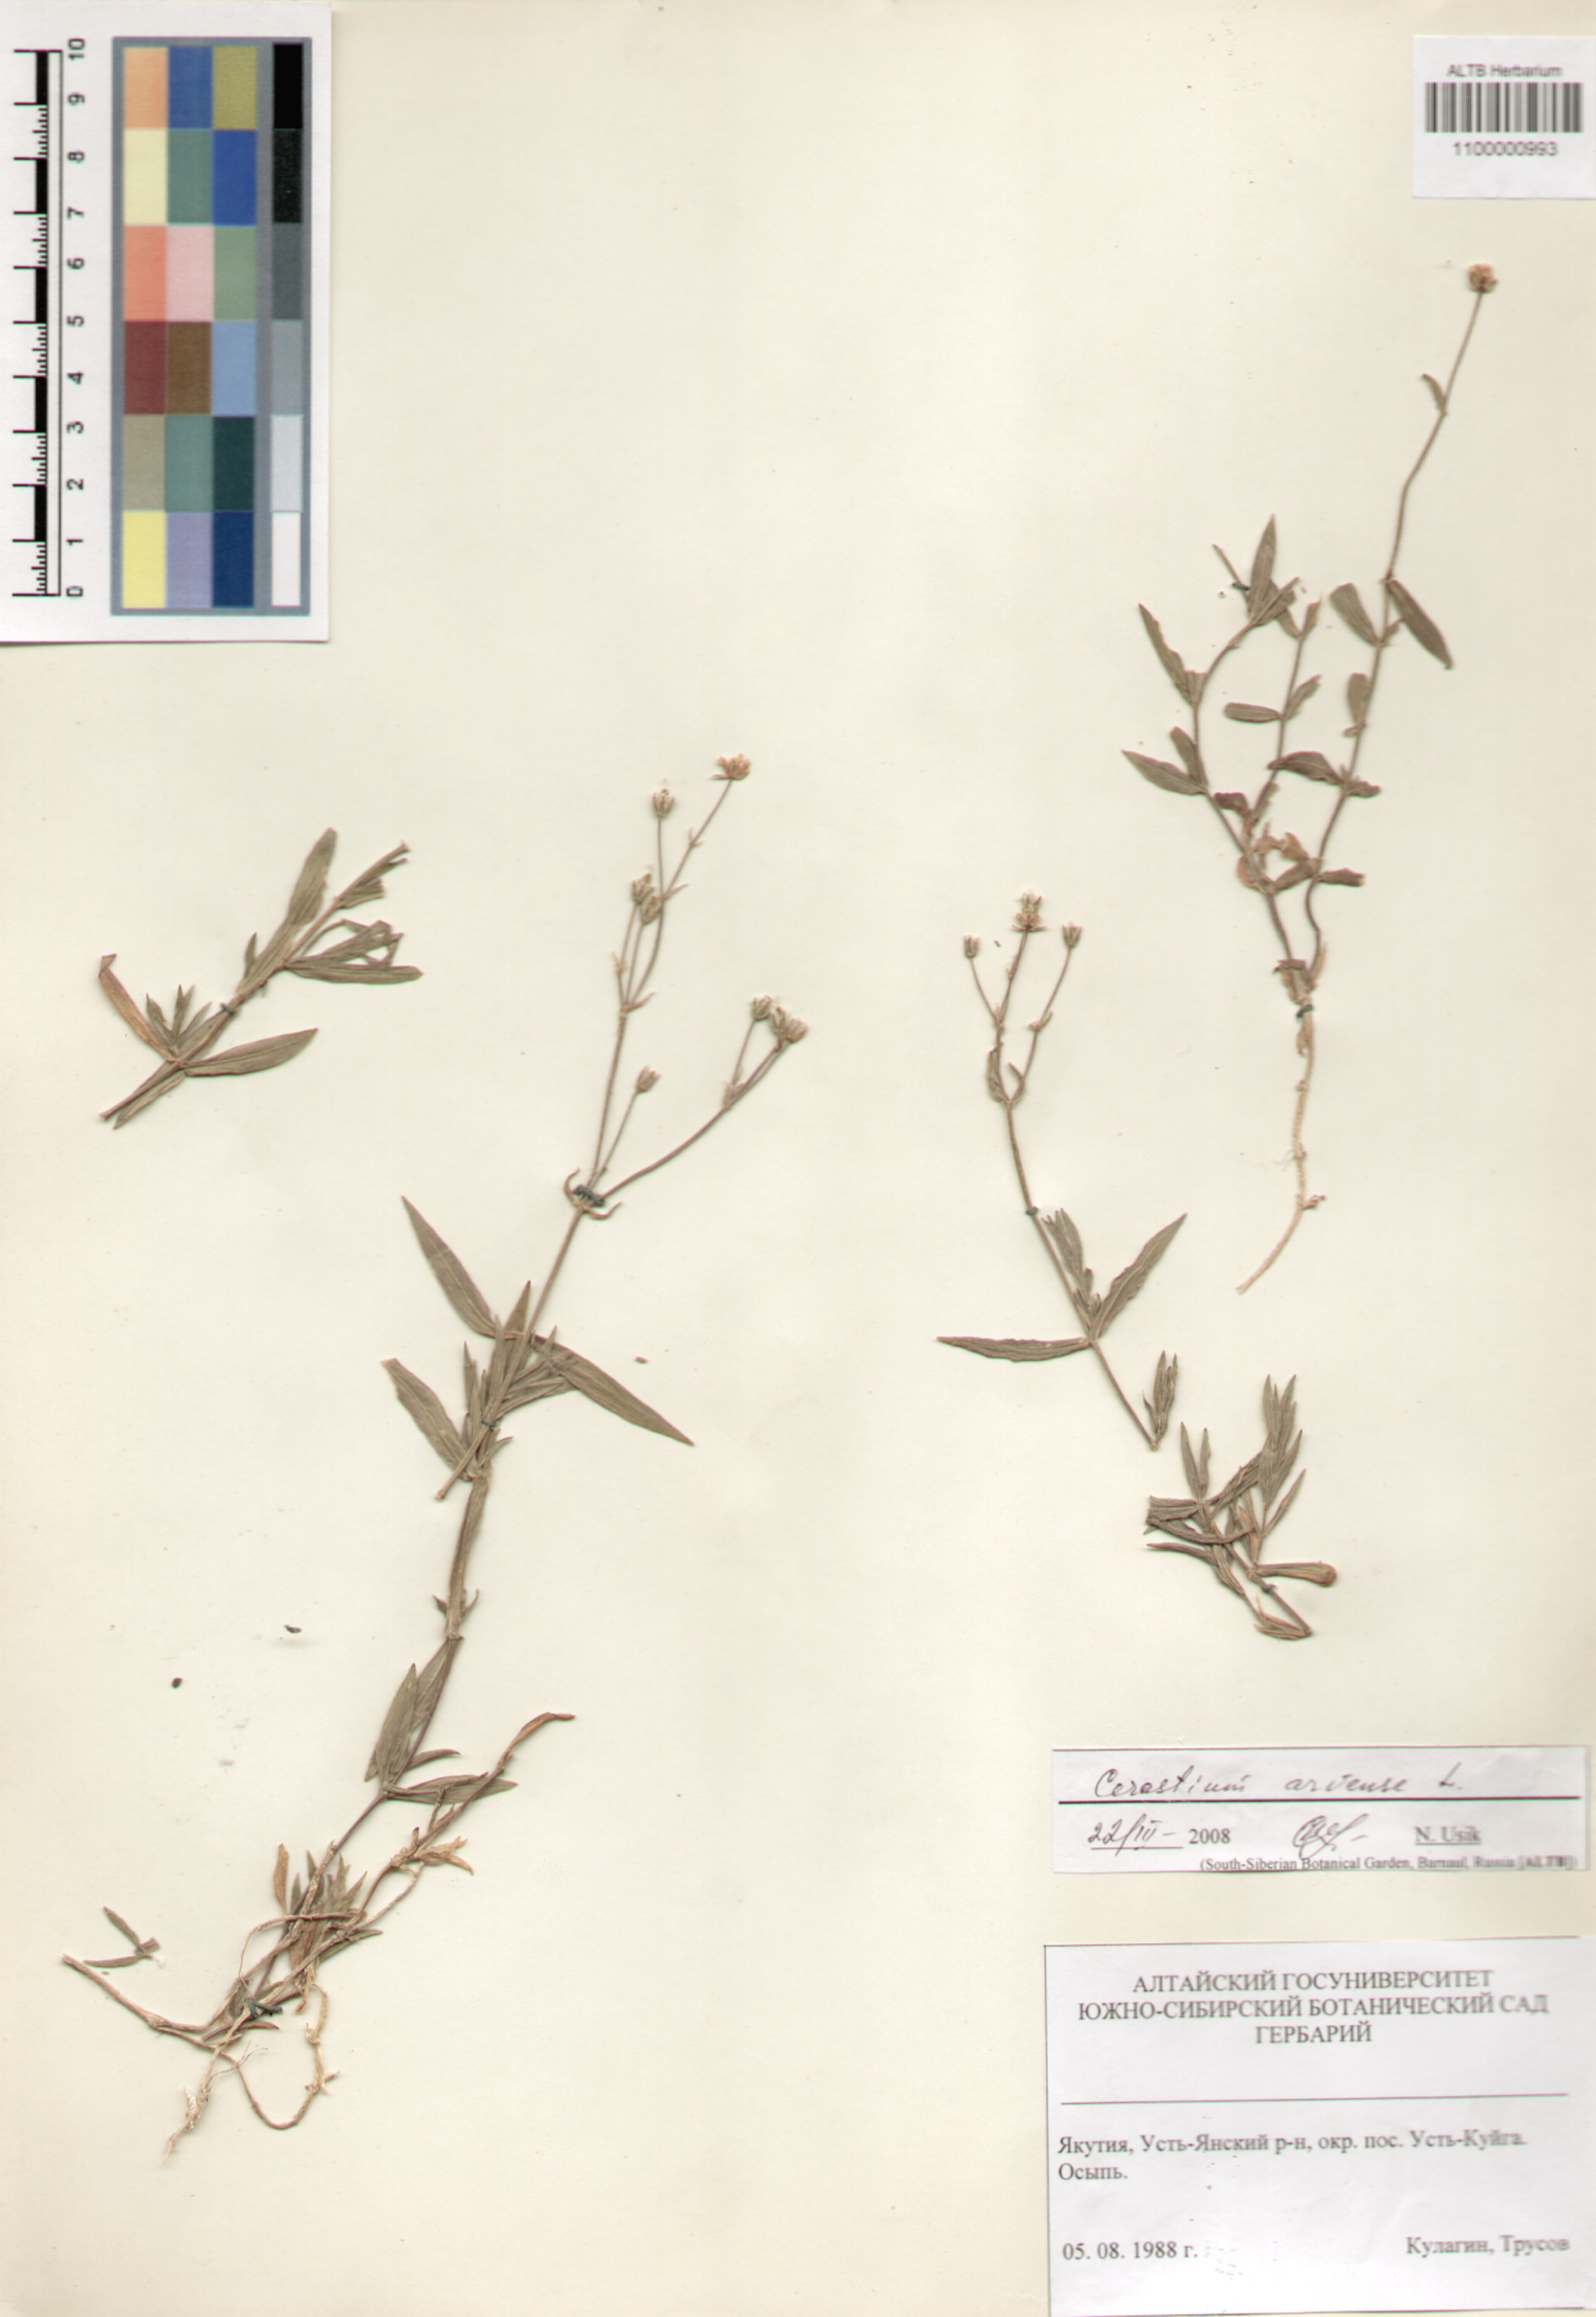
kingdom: Plantae
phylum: Tracheophyta
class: Magnoliopsida
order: Caryophyllales
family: Caryophyllaceae
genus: Cerastium
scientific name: Cerastium arvense
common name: Field mouse-ear
